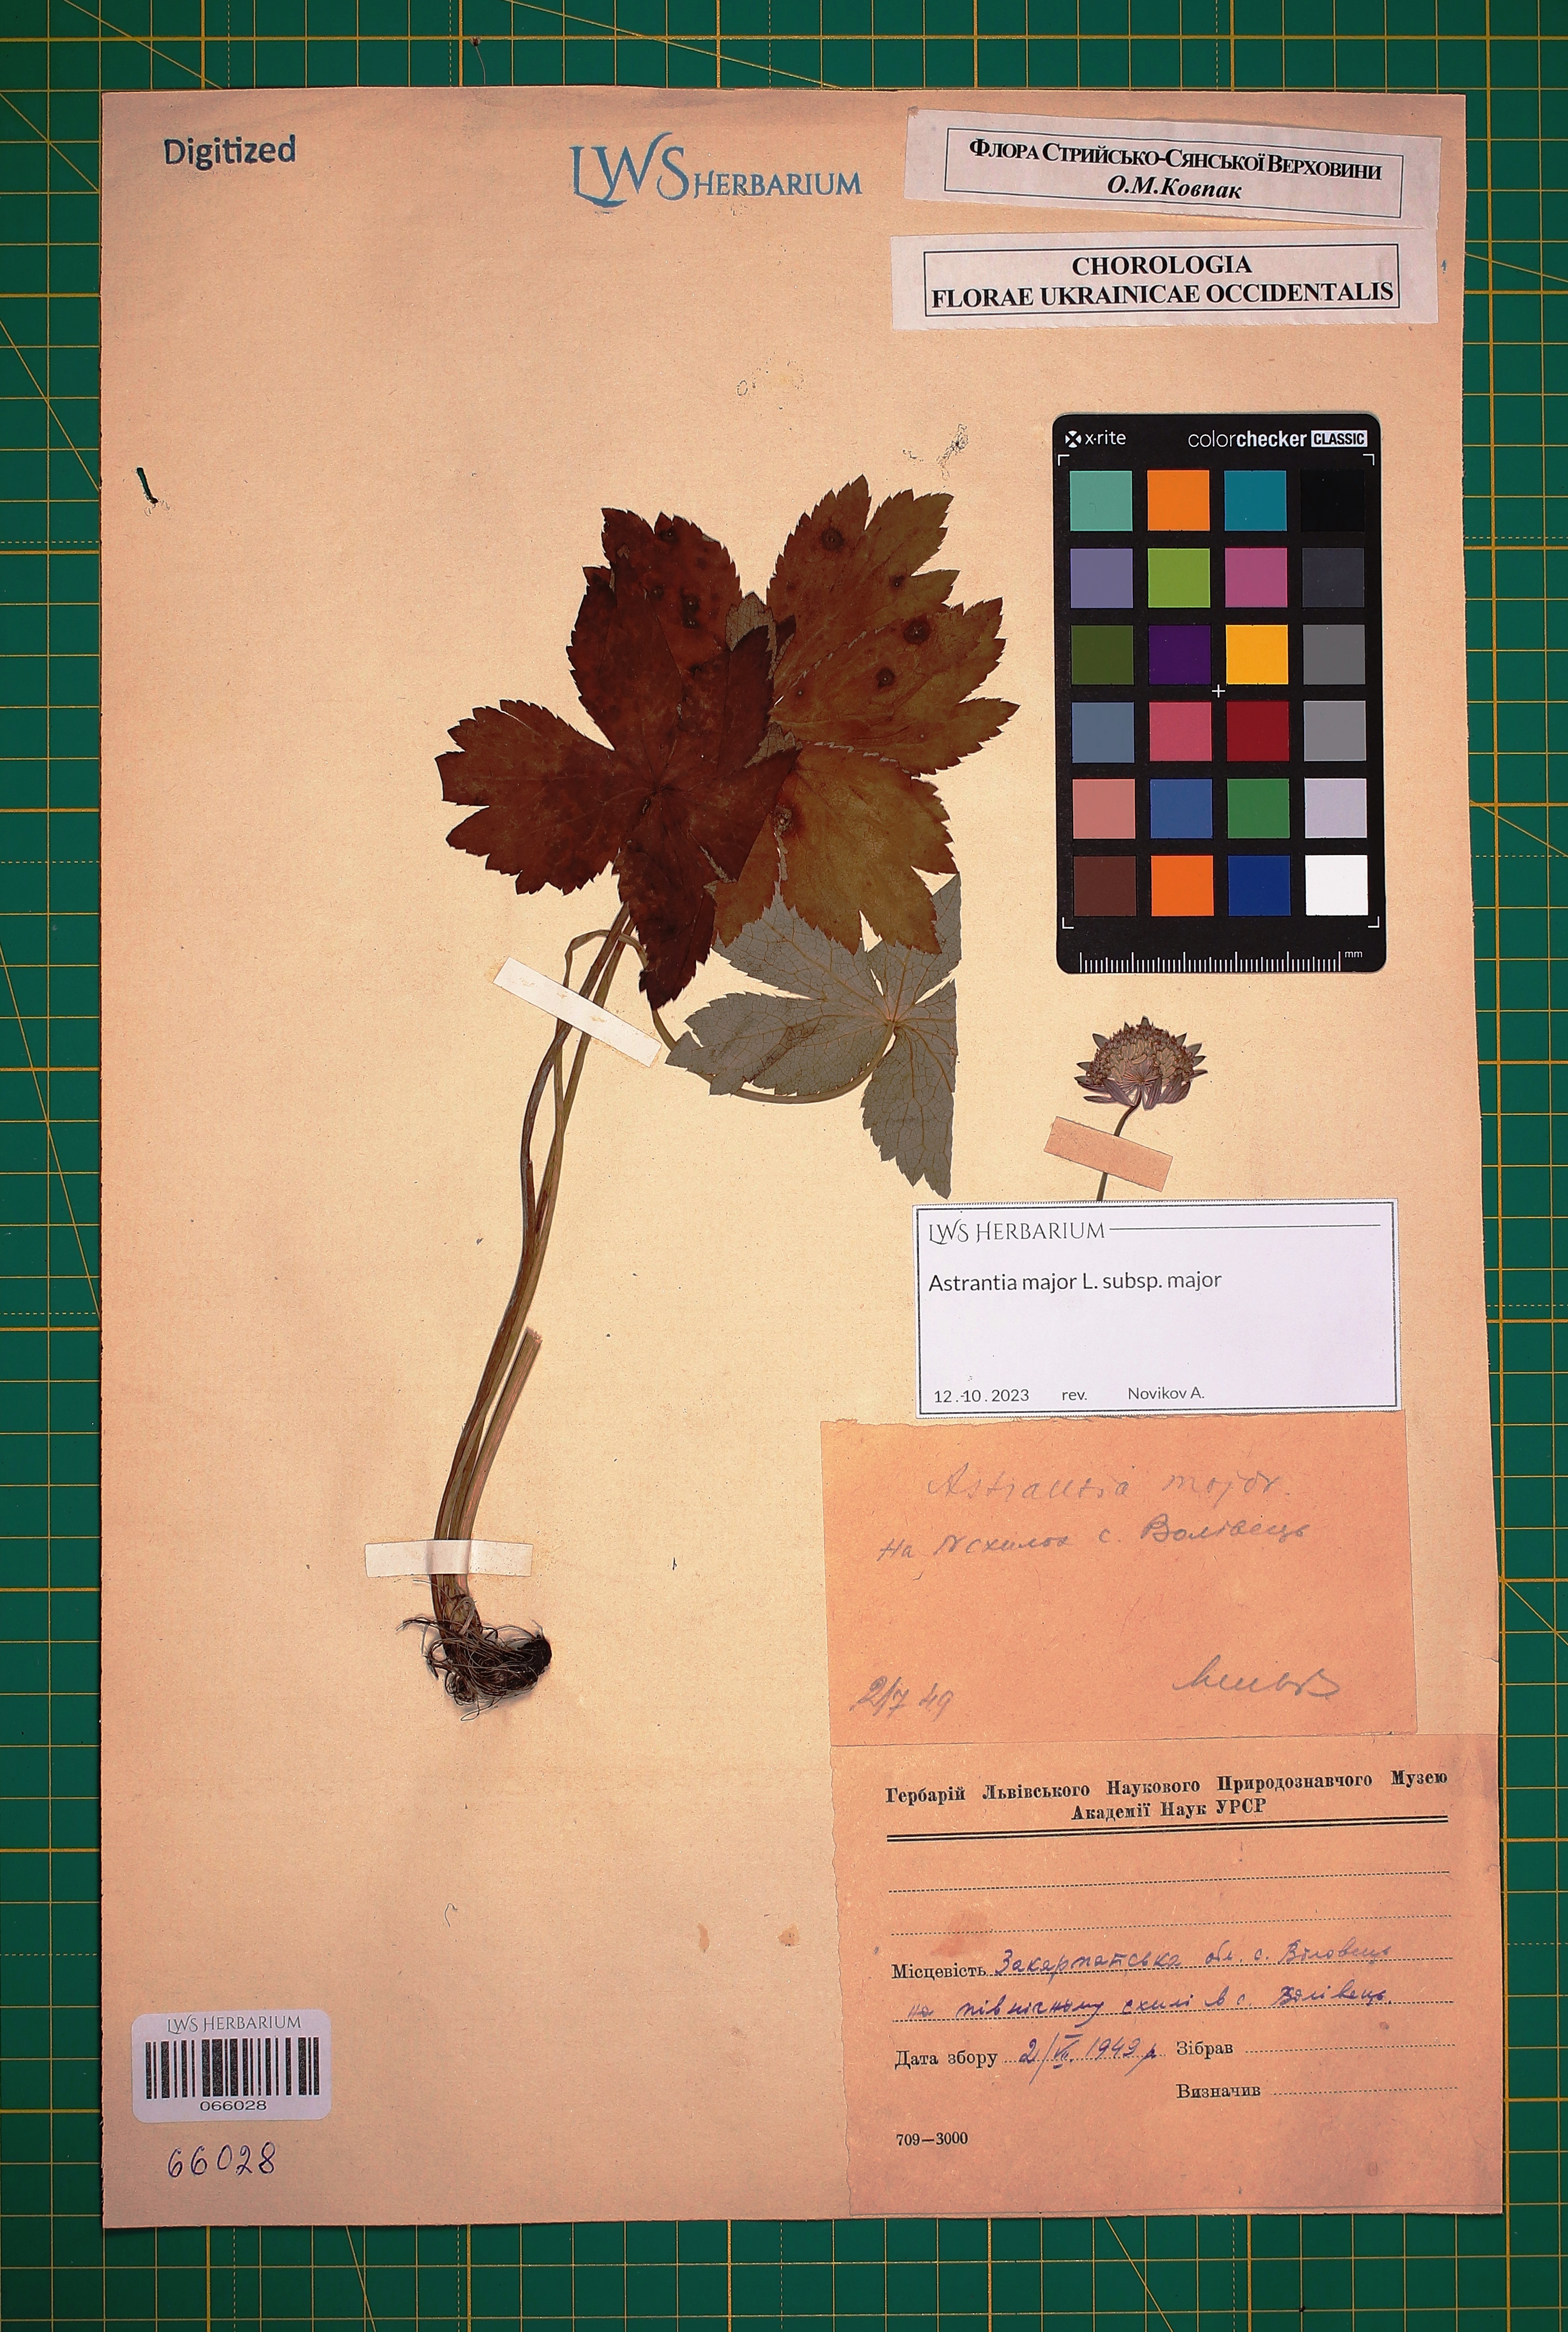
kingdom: Plantae
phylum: Tracheophyta
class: Magnoliopsida
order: Apiales
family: Apiaceae
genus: Astrantia
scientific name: Astrantia major
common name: Greater masterwort
